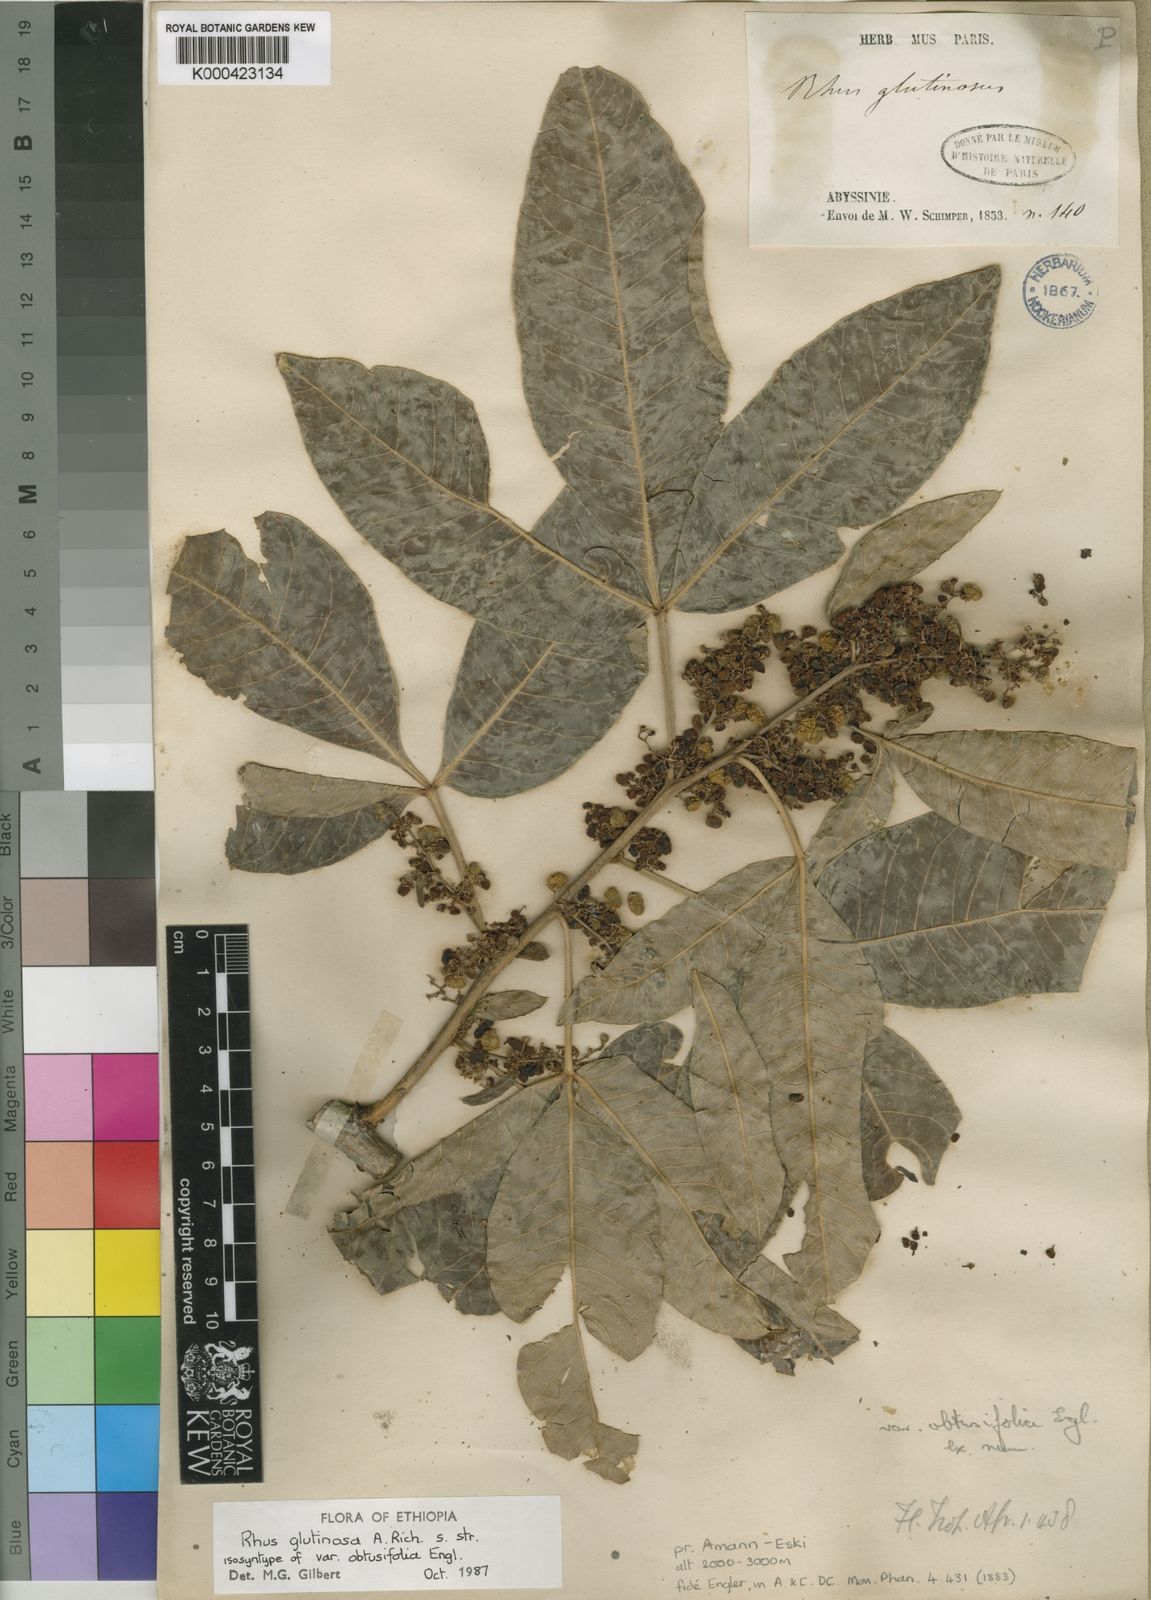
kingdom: Plantae
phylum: Tracheophyta
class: Magnoliopsida
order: Sapindales
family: Anacardiaceae
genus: Searsia
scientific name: Searsia glutinosa
